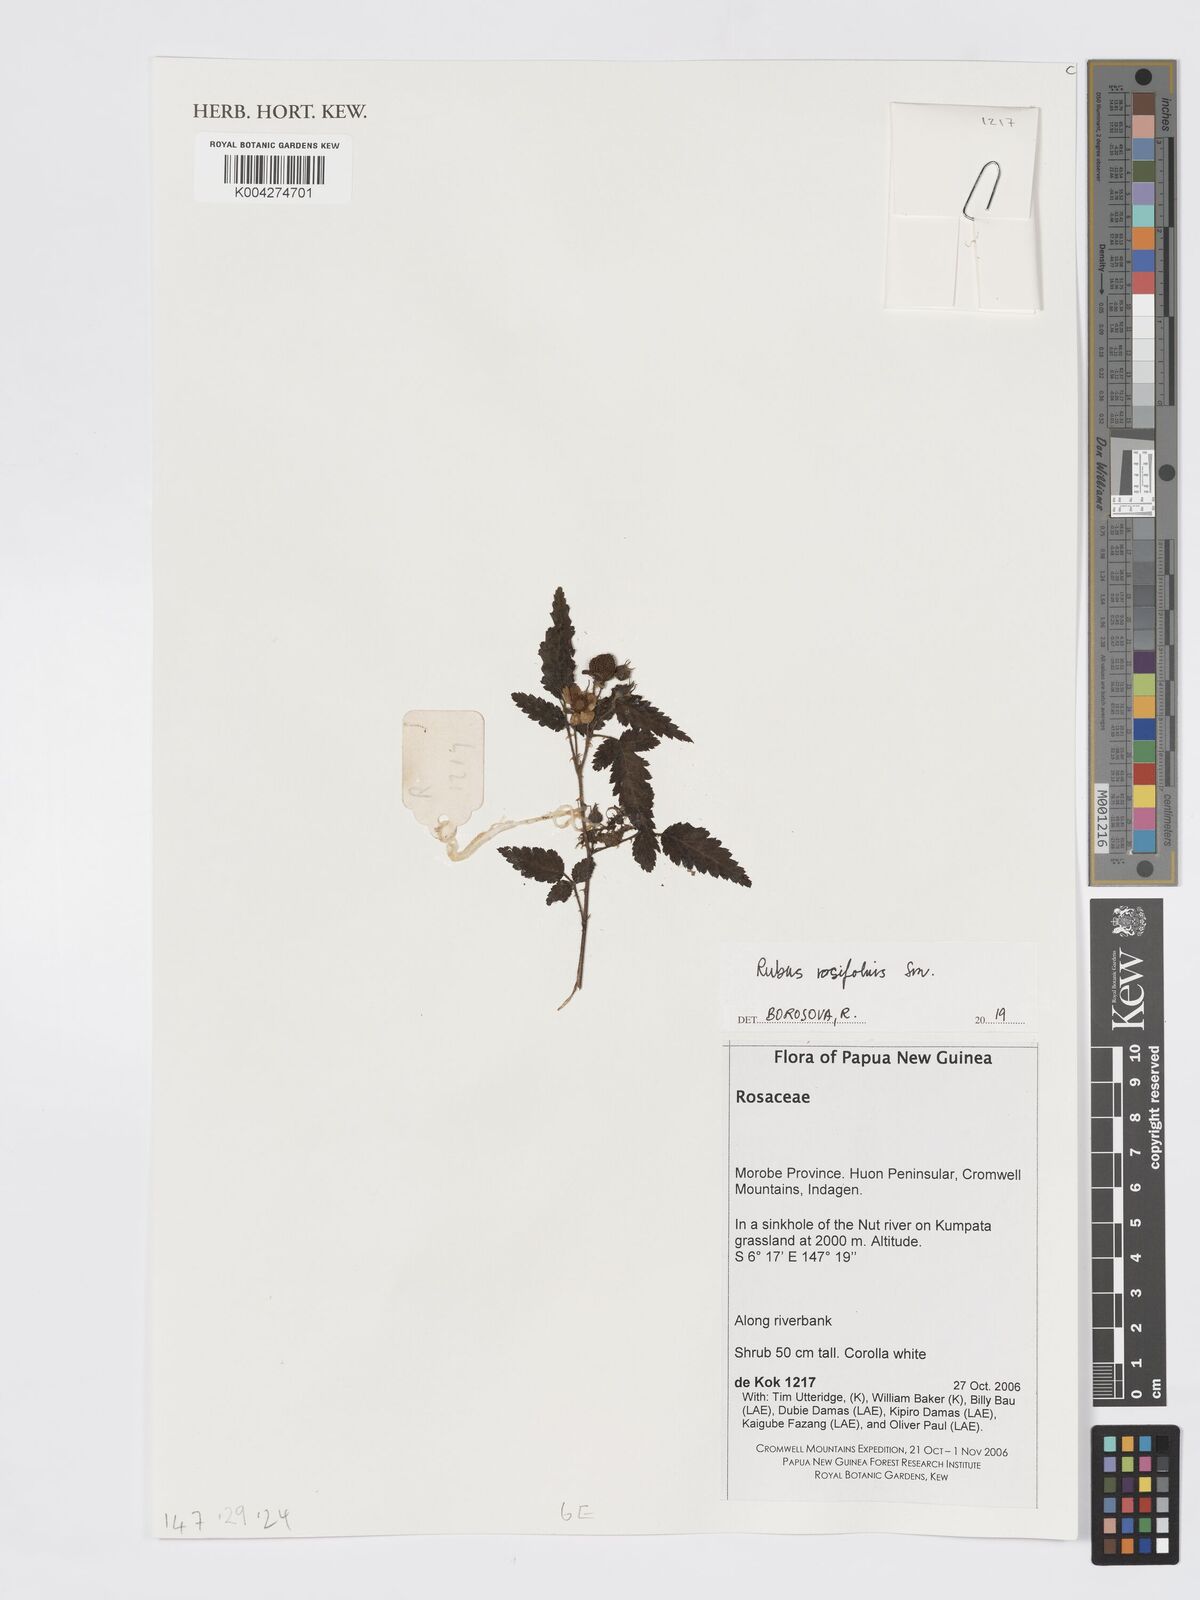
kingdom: Plantae
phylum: Tracheophyta
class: Magnoliopsida
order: Rosales
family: Rosaceae
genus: Rubus
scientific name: Rubus
